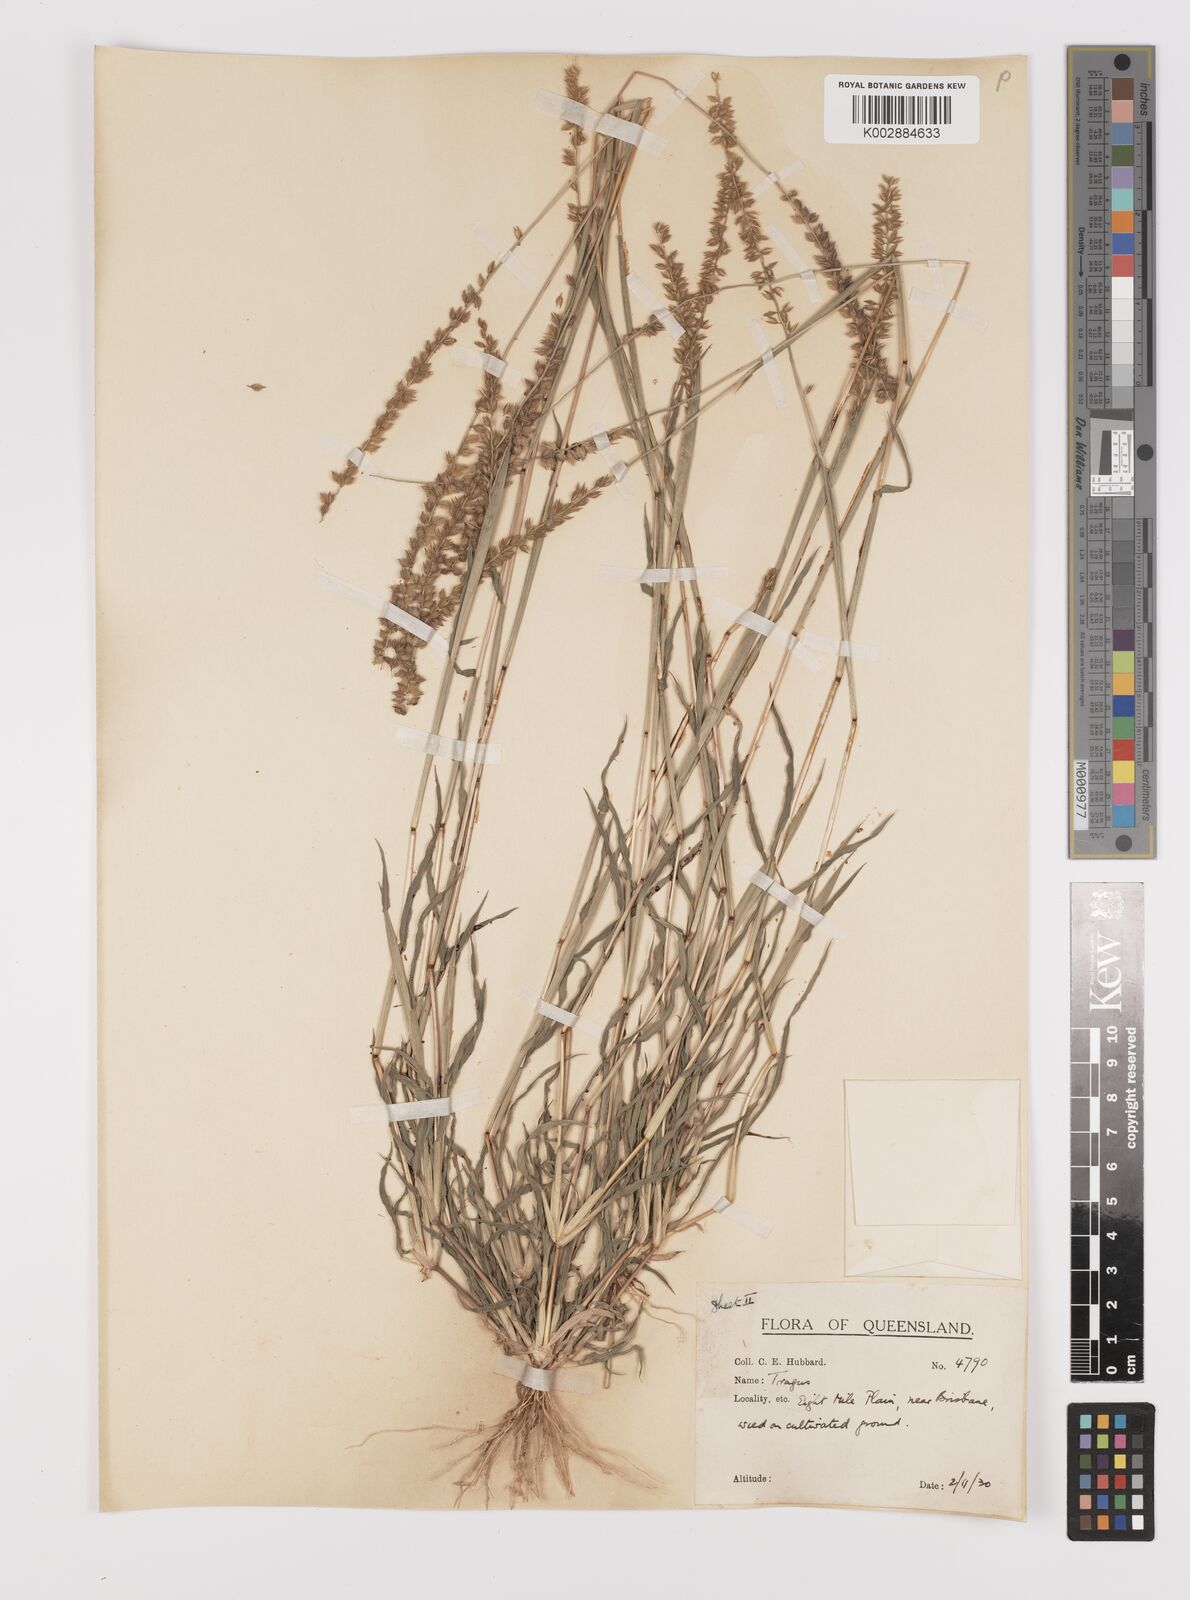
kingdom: Plantae
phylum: Tracheophyta
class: Liliopsida
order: Poales
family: Poaceae
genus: Tragus
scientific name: Tragus australianus
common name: Australian bur-grass
